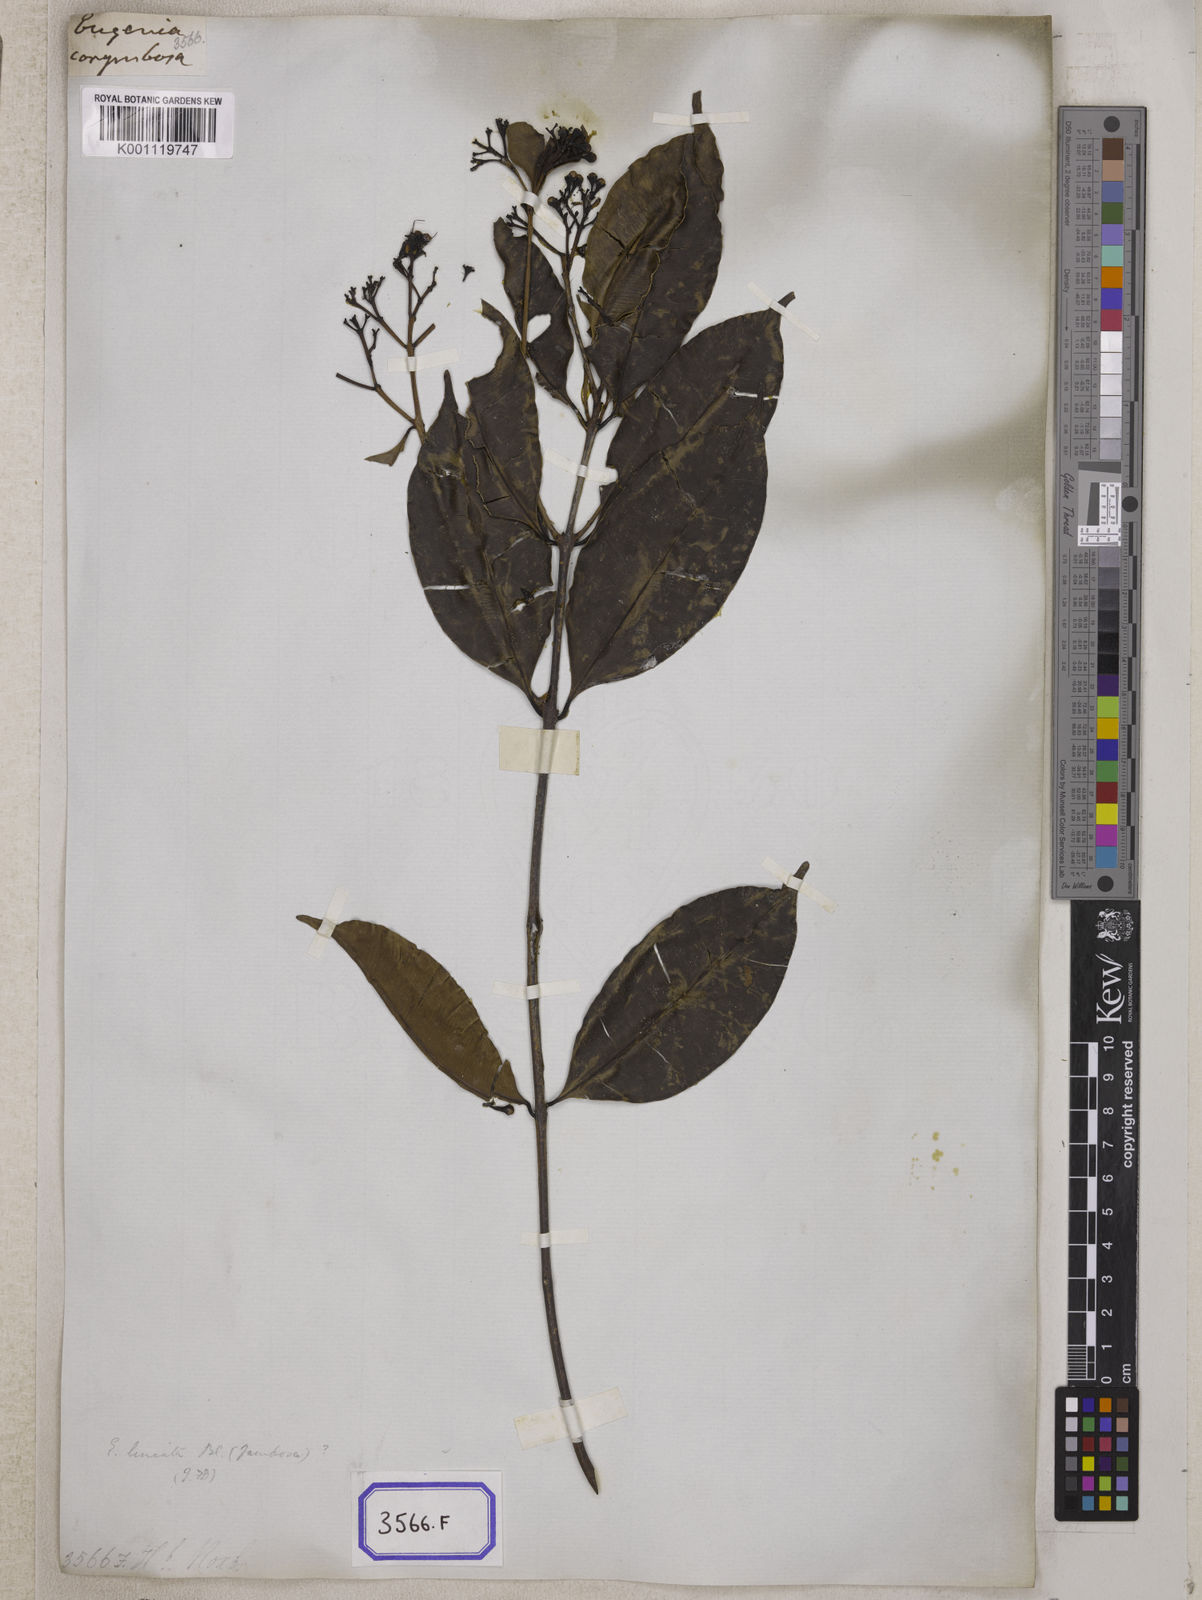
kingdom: Plantae
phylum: Tracheophyta
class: Magnoliopsida
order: Myrtales
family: Myrtaceae
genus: Syzygium
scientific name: Syzygium
